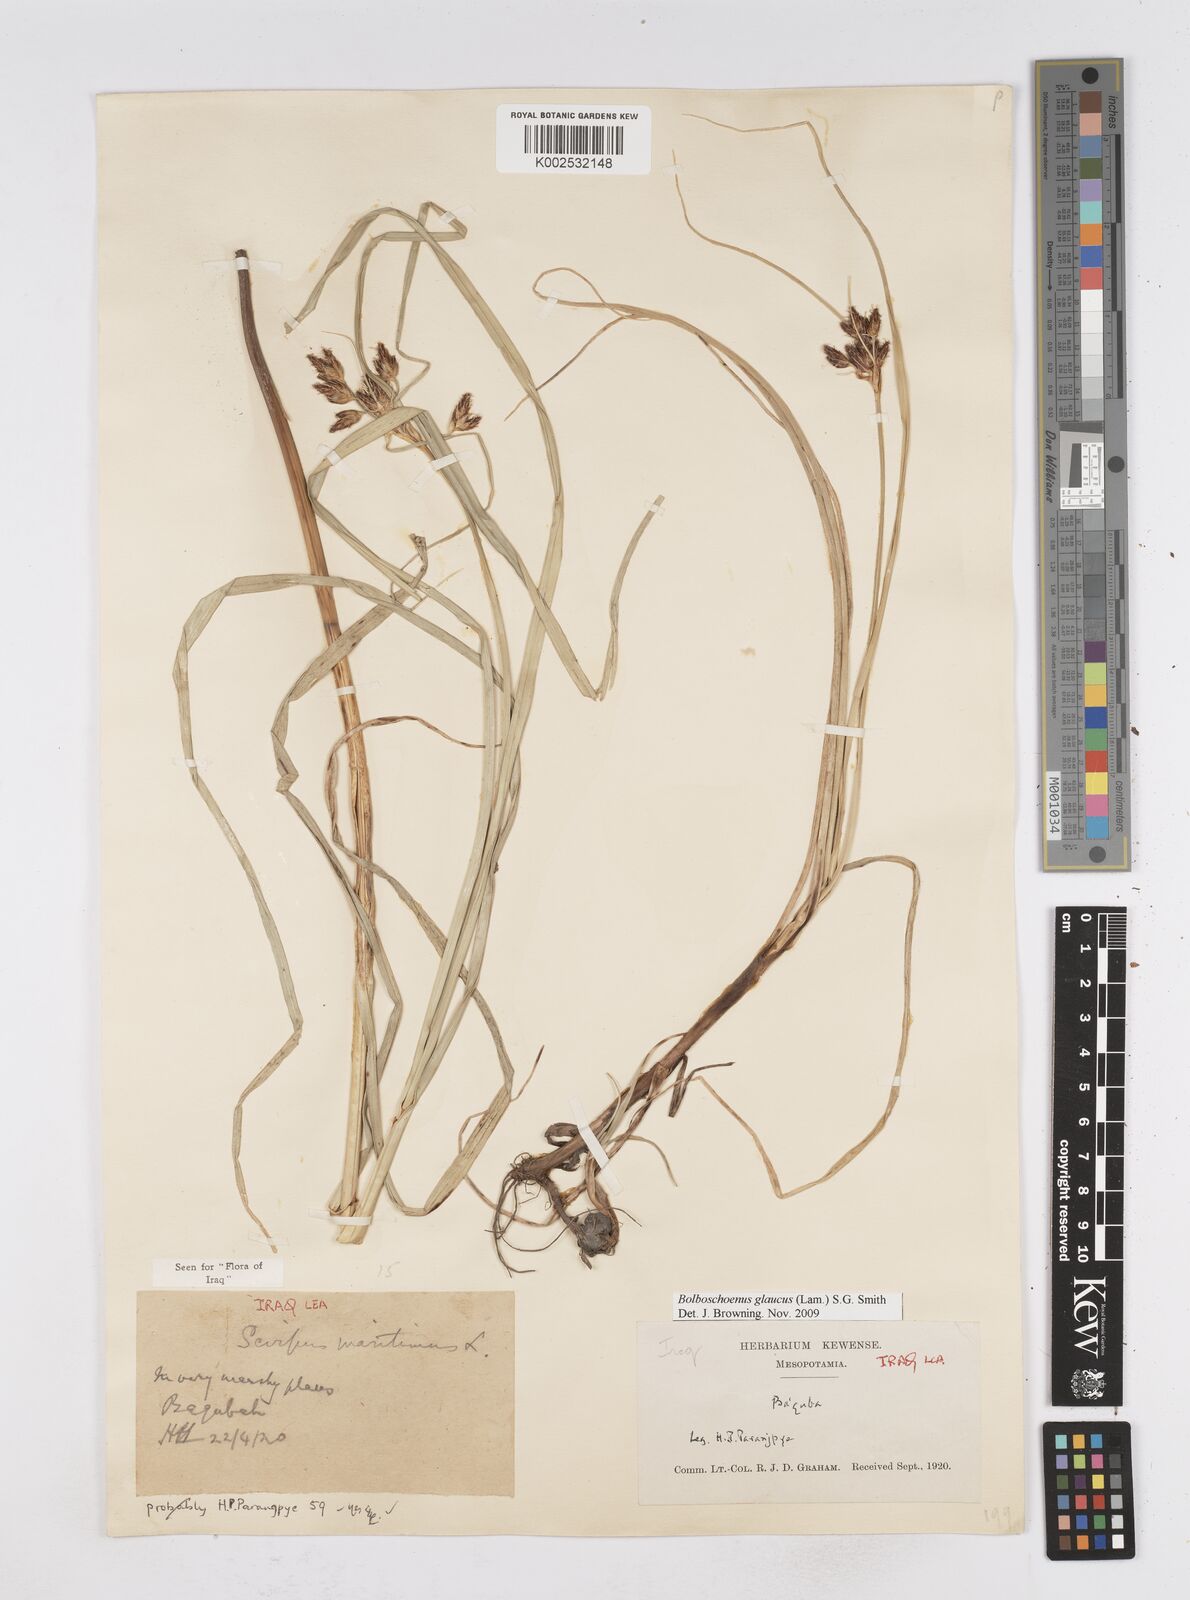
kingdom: Plantae
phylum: Tracheophyta
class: Liliopsida
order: Poales
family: Cyperaceae
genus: Bolboschoenus
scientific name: Bolboschoenus maritimus
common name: Sea club-rush
